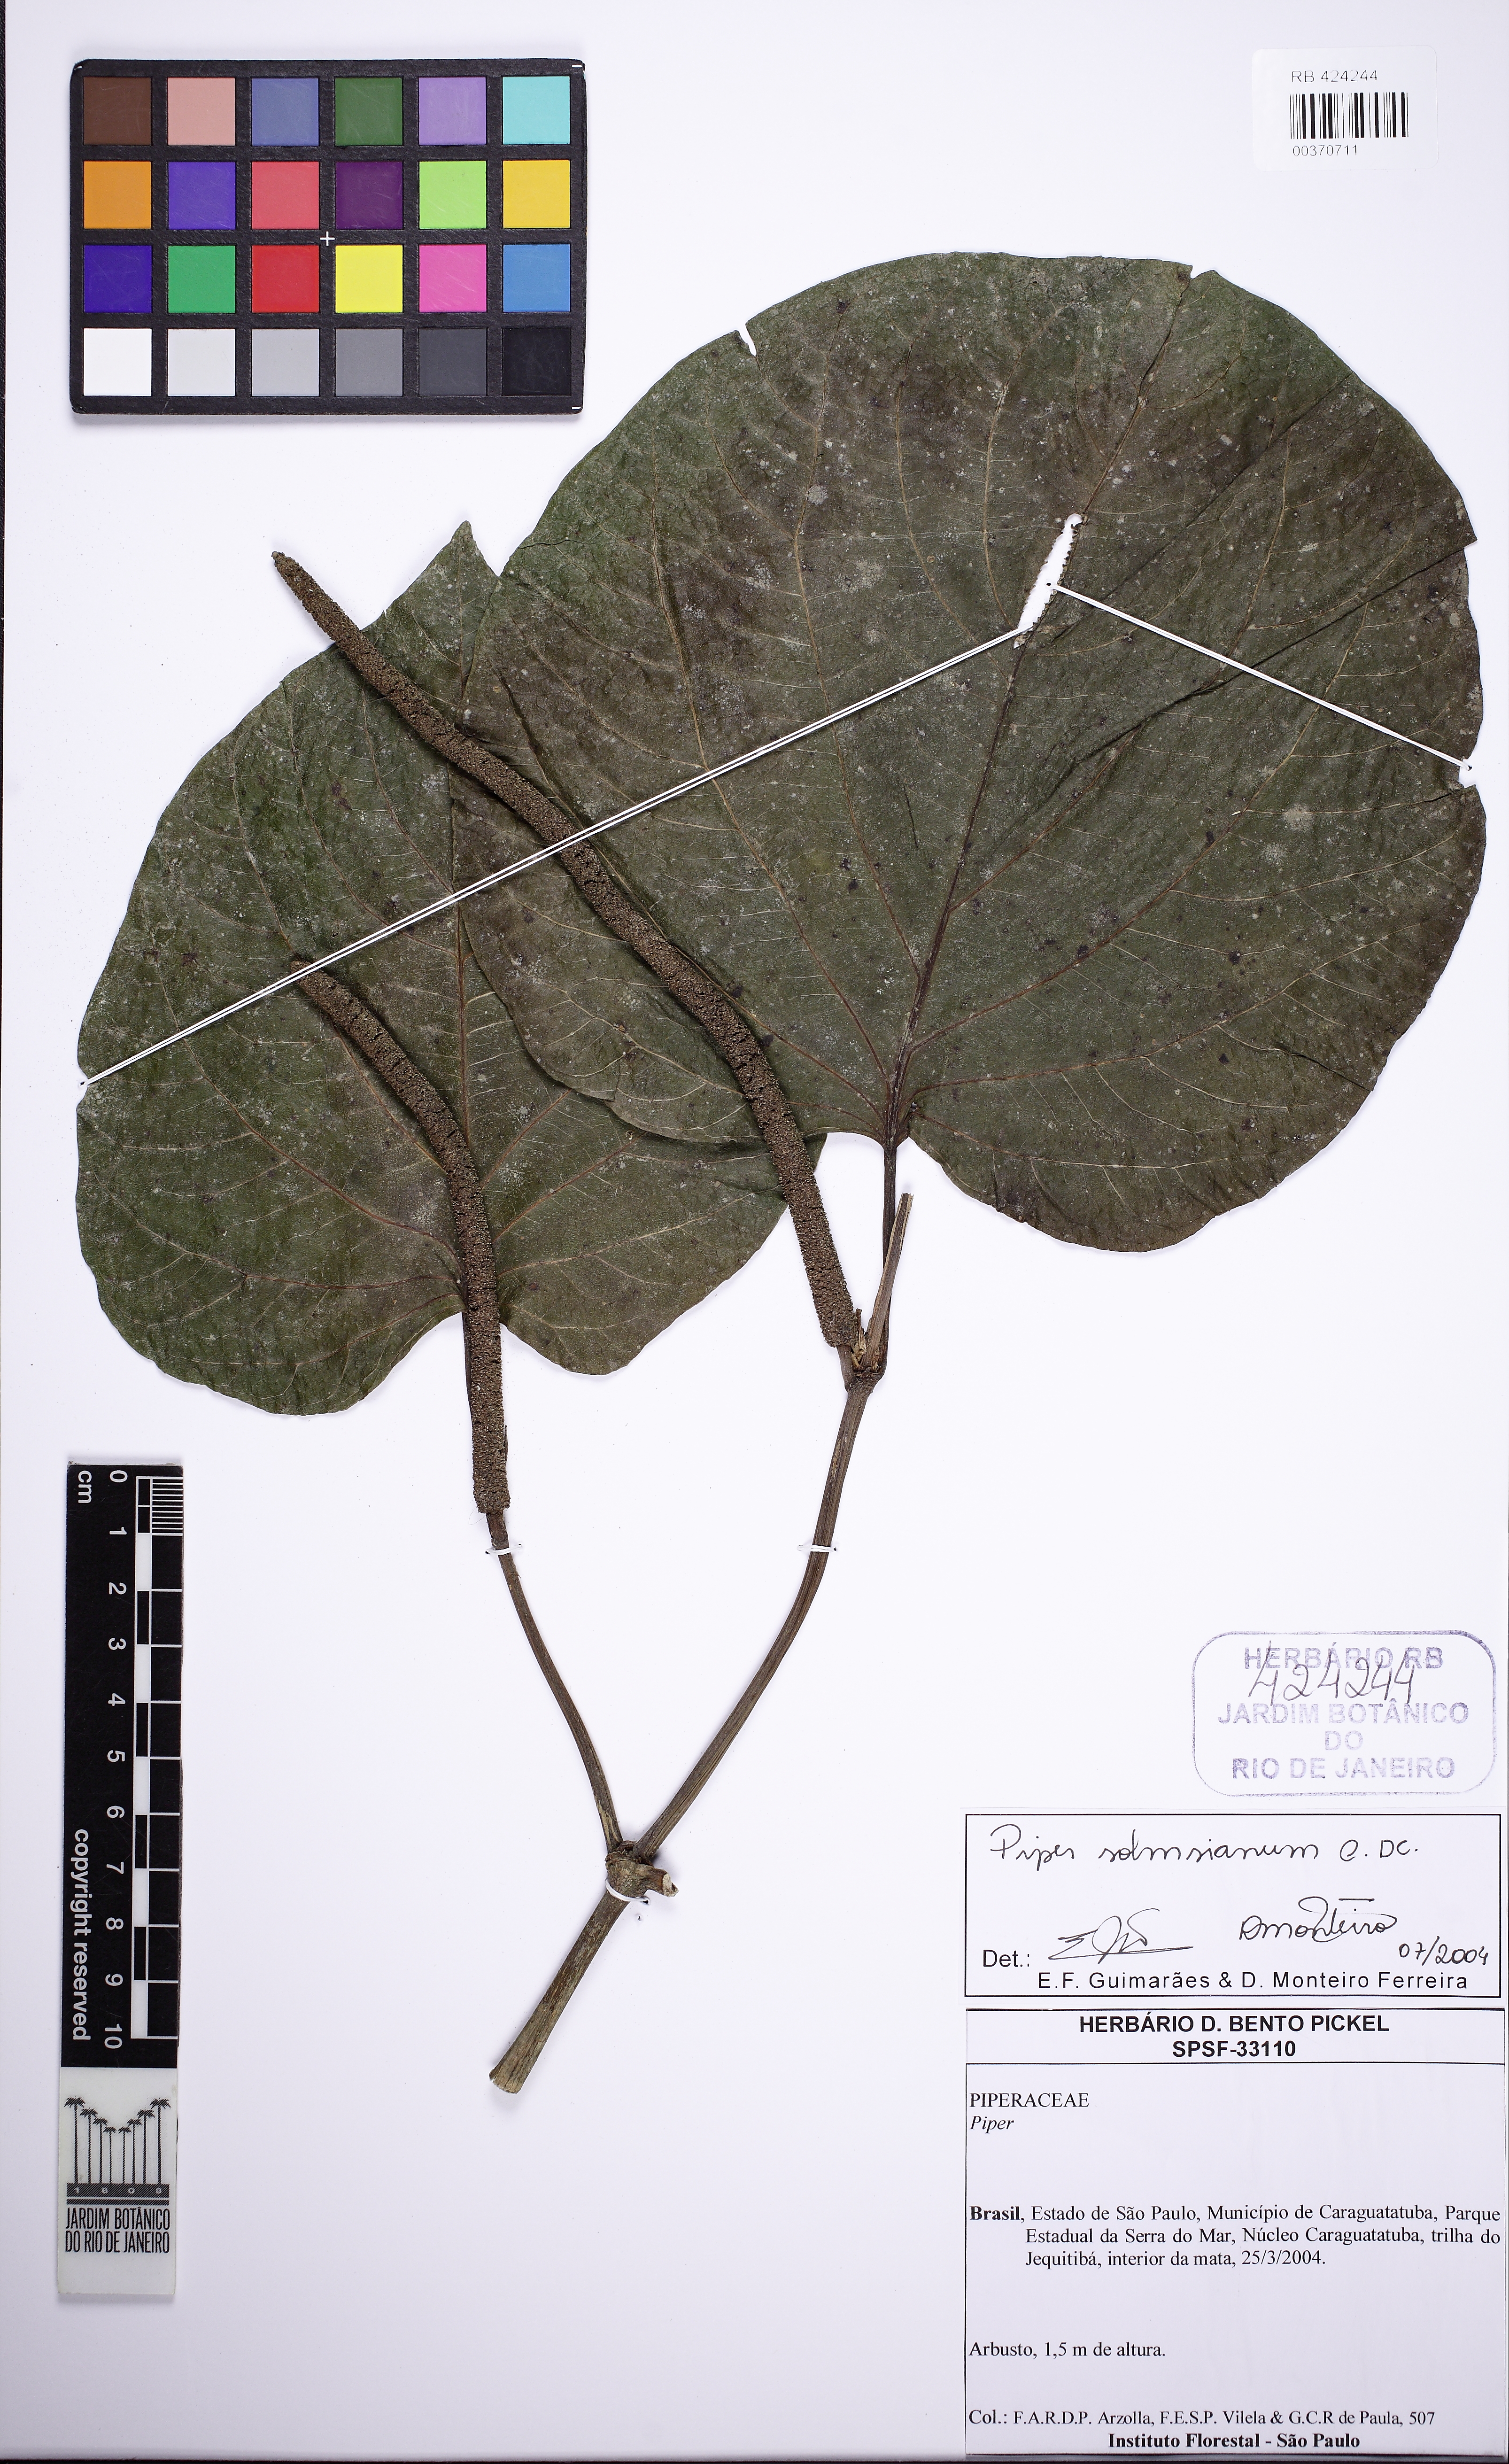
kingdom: Plantae
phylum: Tracheophyta
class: Magnoliopsida
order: Piperales
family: Piperaceae
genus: Piper
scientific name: Piper solmsianum
